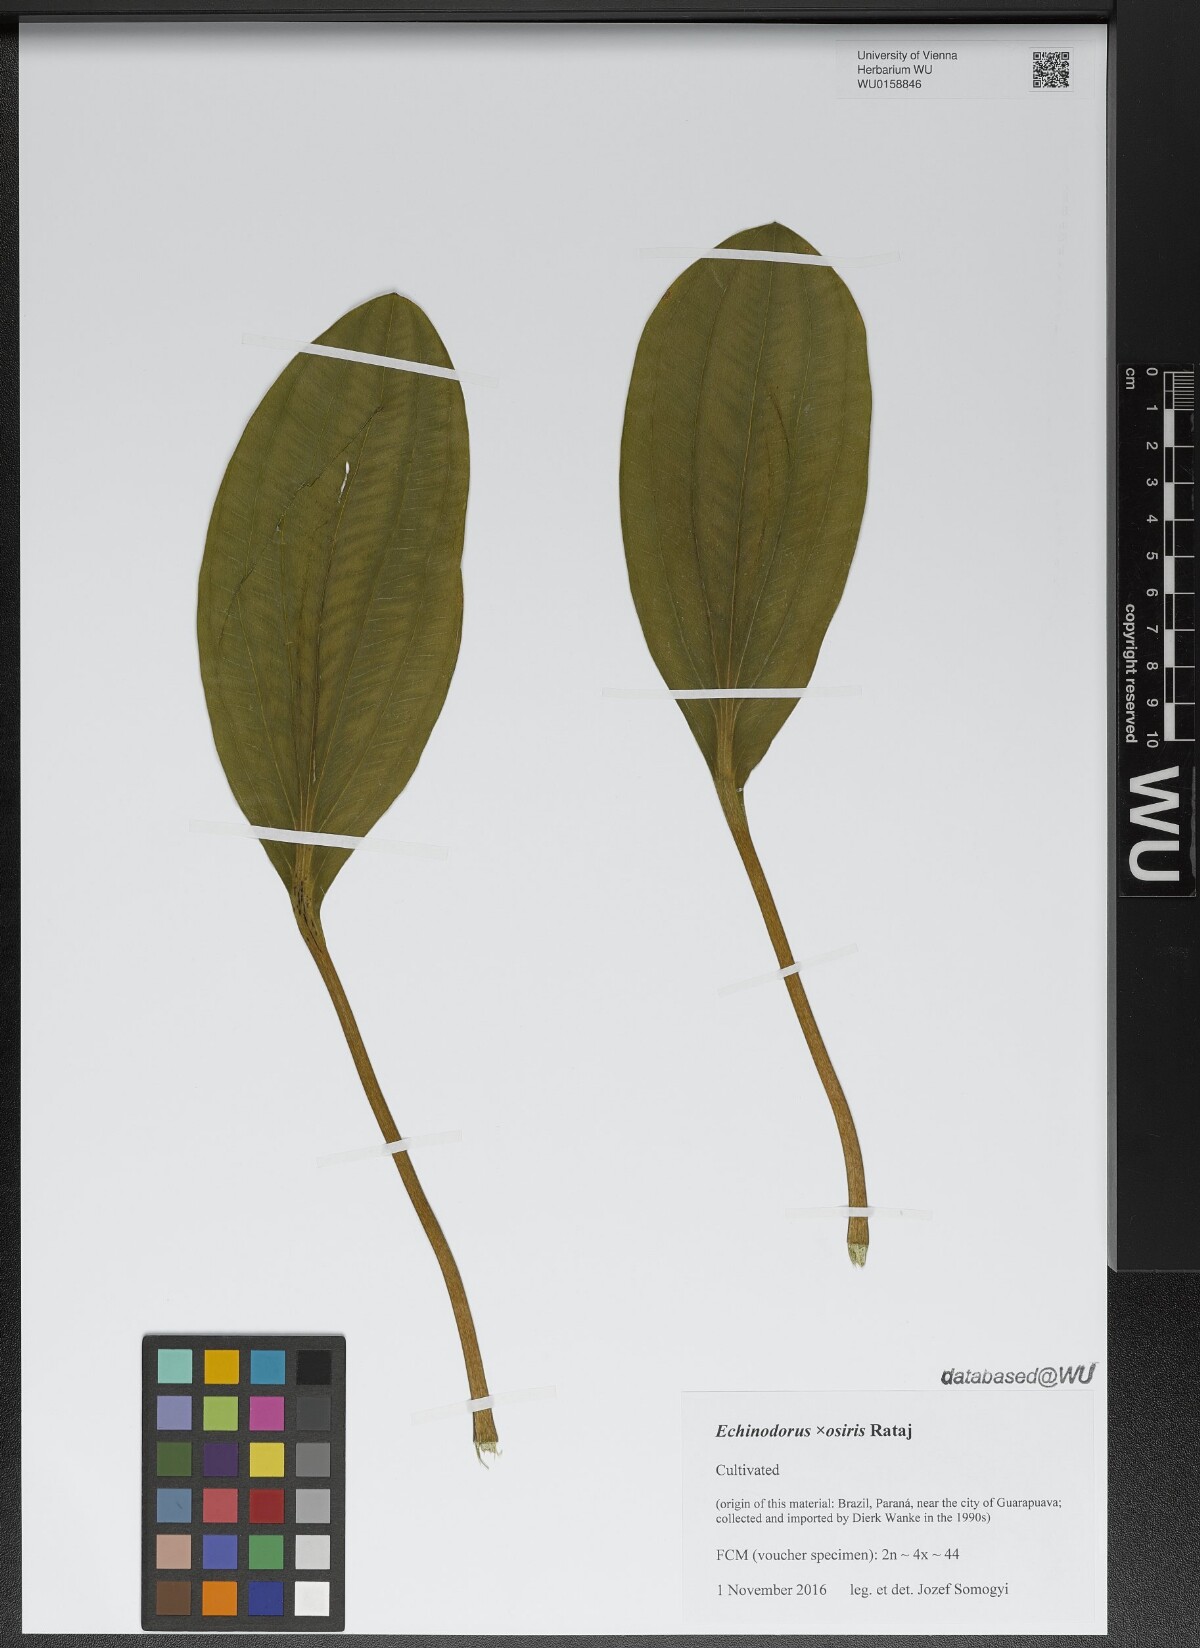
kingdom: Plantae
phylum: Tracheophyta
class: Liliopsida
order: Alismatales
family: Alismataceae
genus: Aquarius
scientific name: Aquarius uruguayensis
